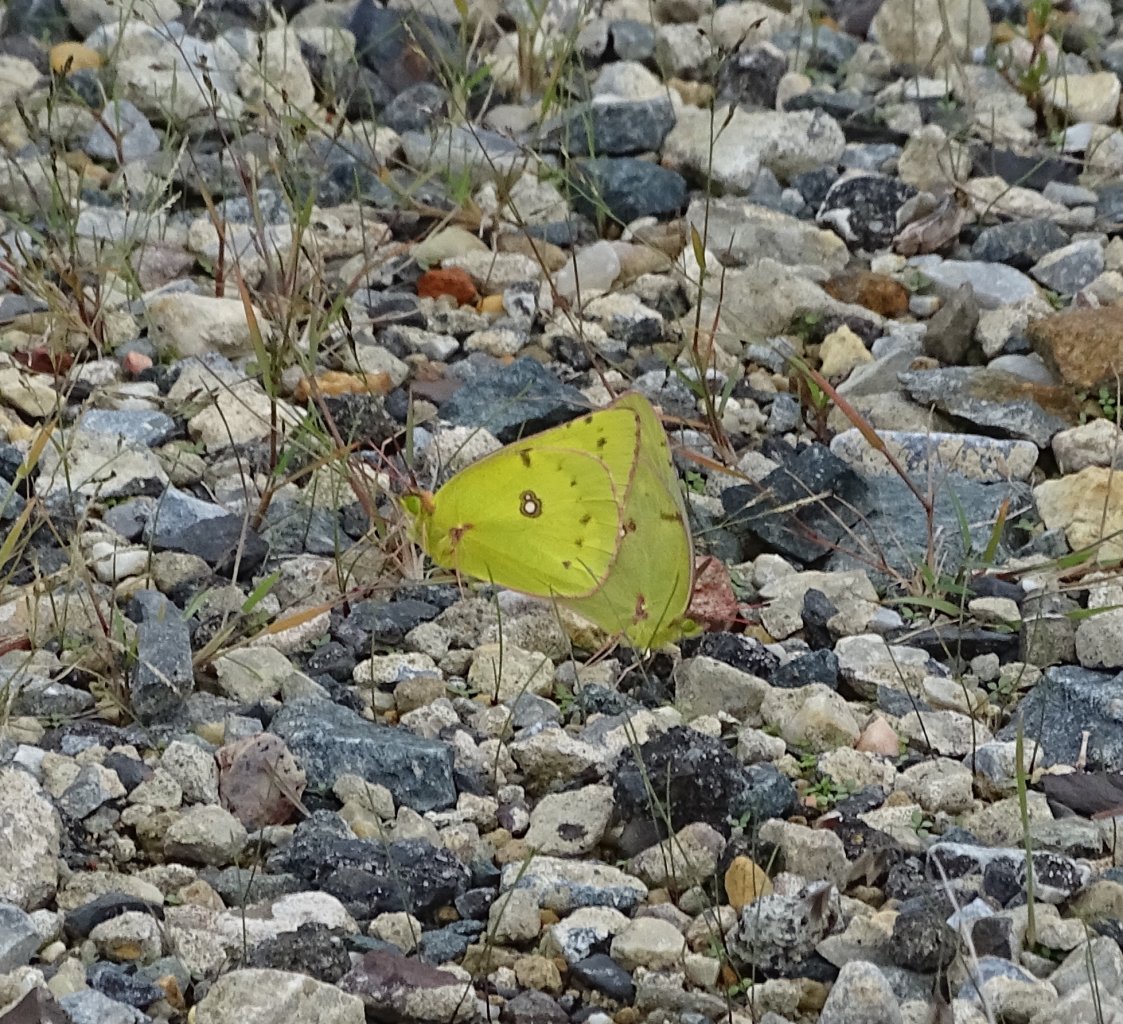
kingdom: Animalia
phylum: Arthropoda
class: Insecta
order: Lepidoptera
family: Pieridae
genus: Colias
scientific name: Colias eurytheme
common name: Orange Sulphur
